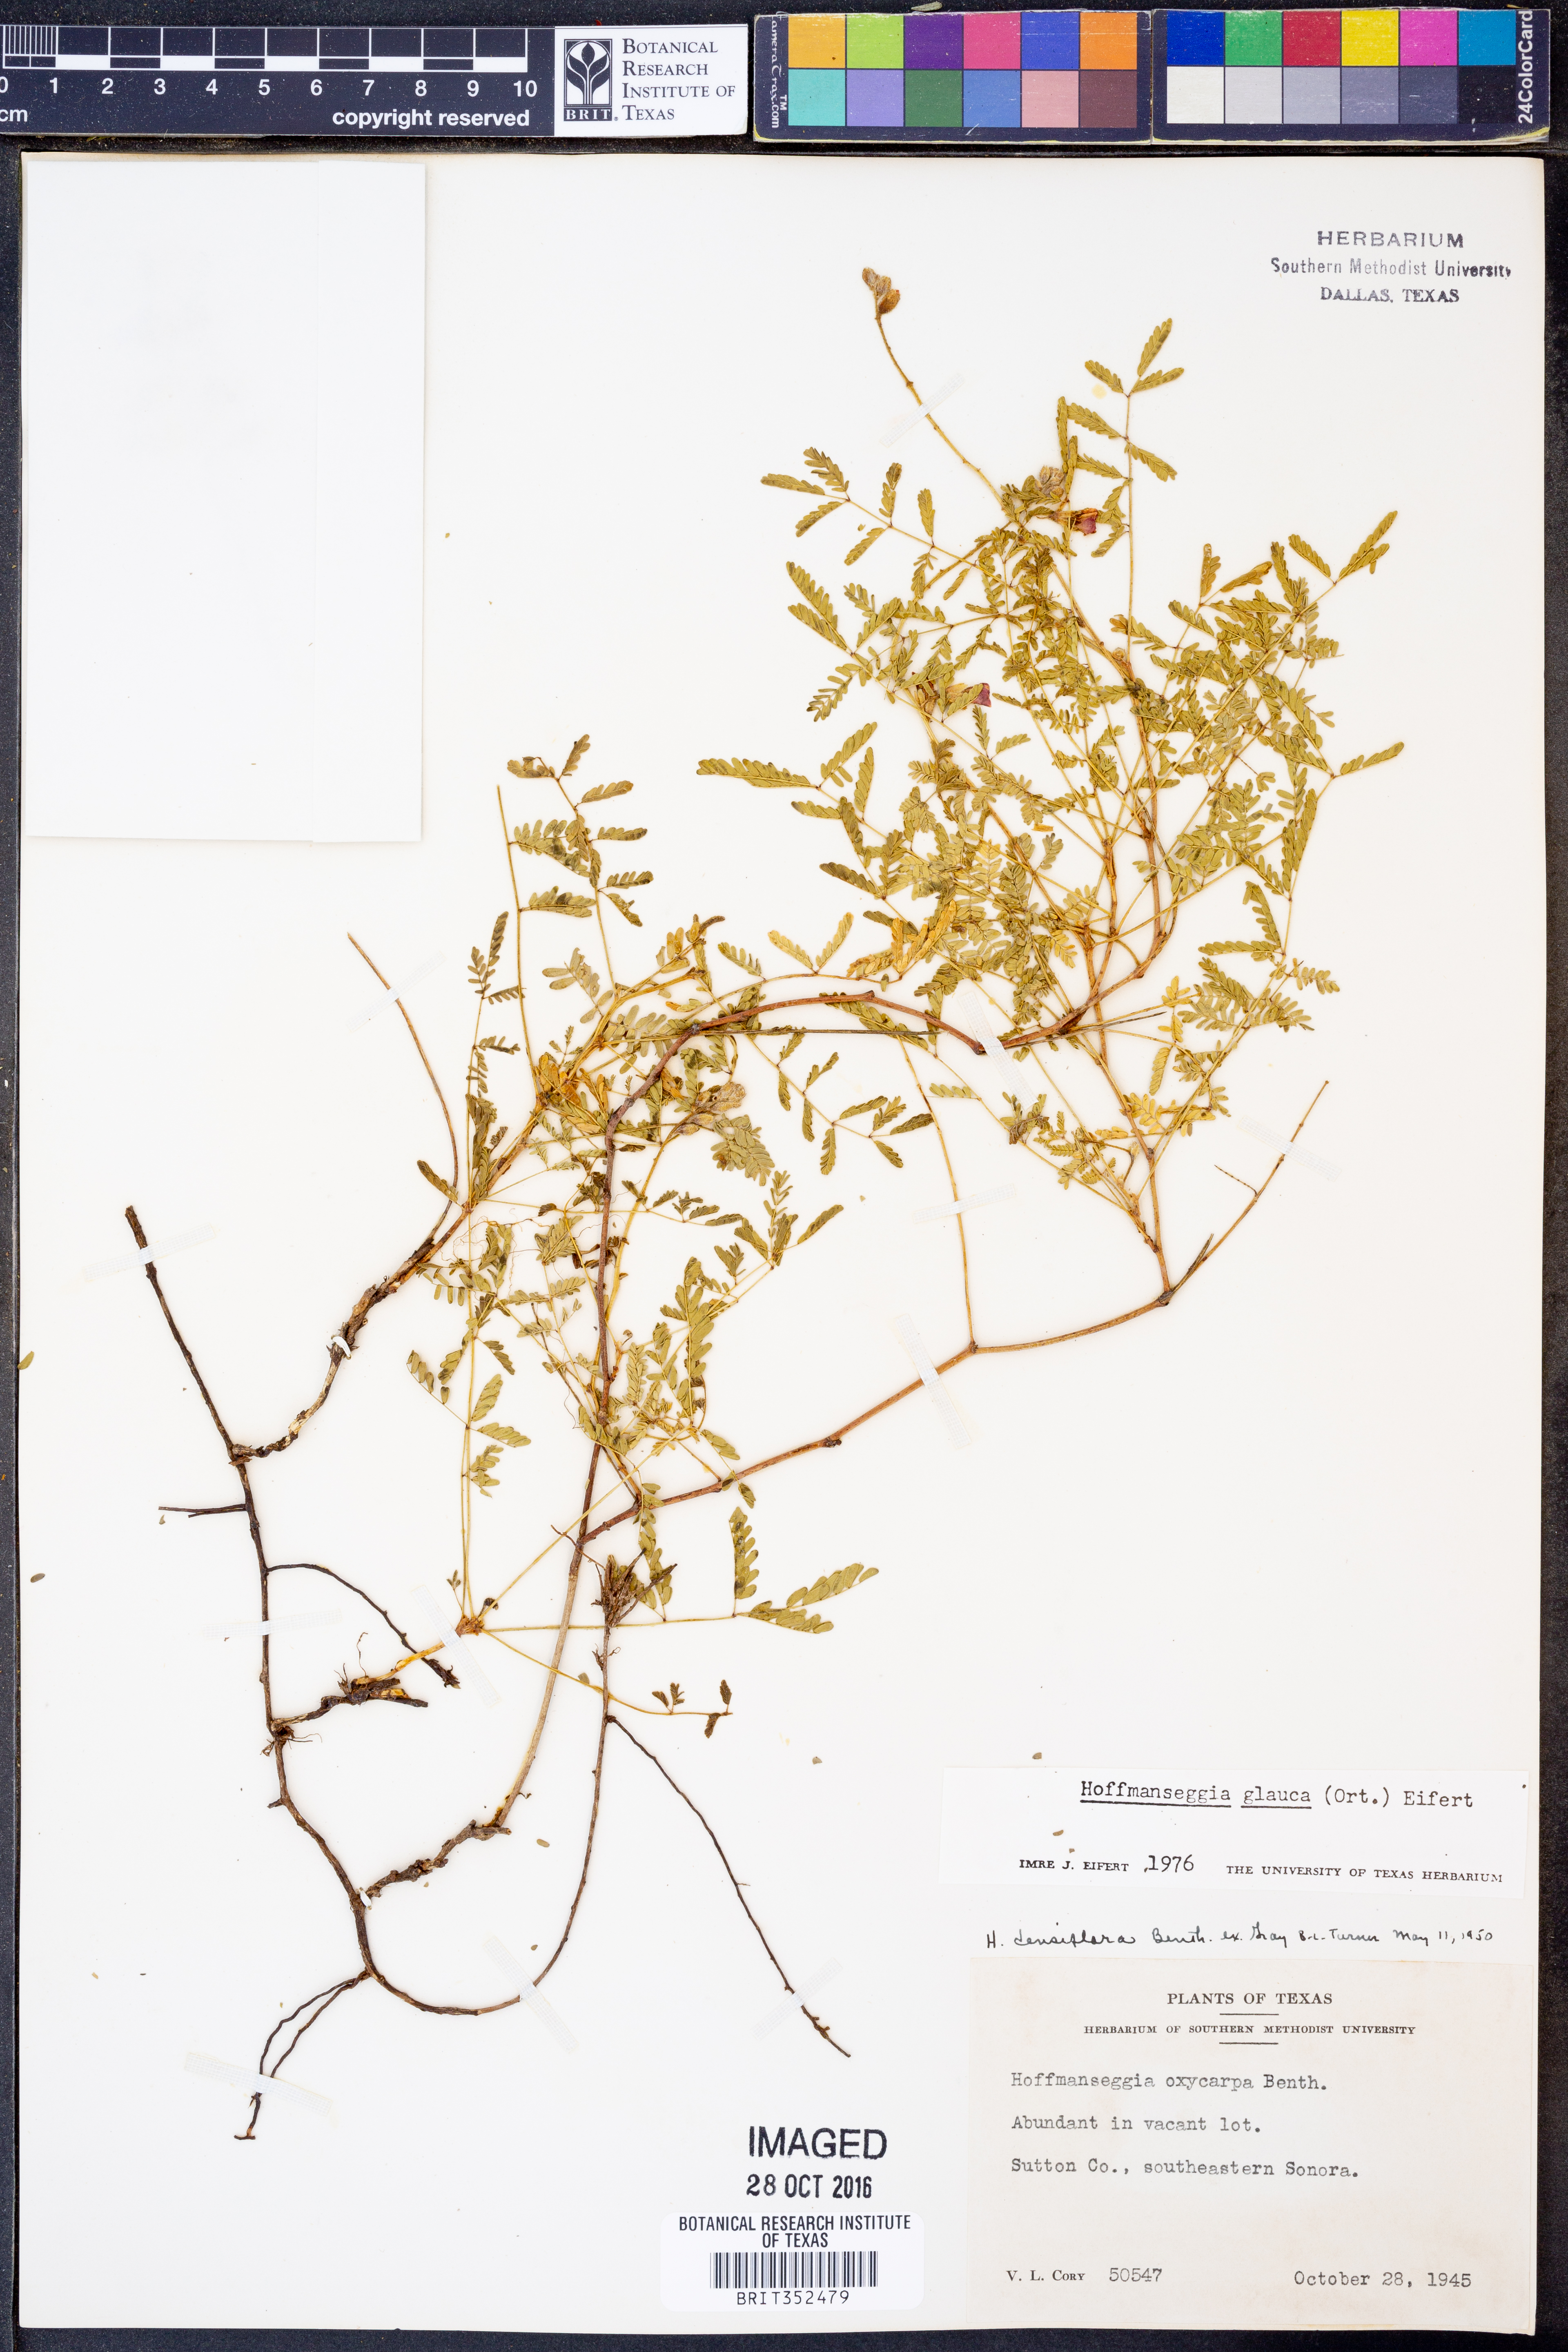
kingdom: Plantae
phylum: Tracheophyta
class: Magnoliopsida
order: Fabales
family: Fabaceae
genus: Hoffmannseggia
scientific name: Hoffmannseggia glauca
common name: Pignut
